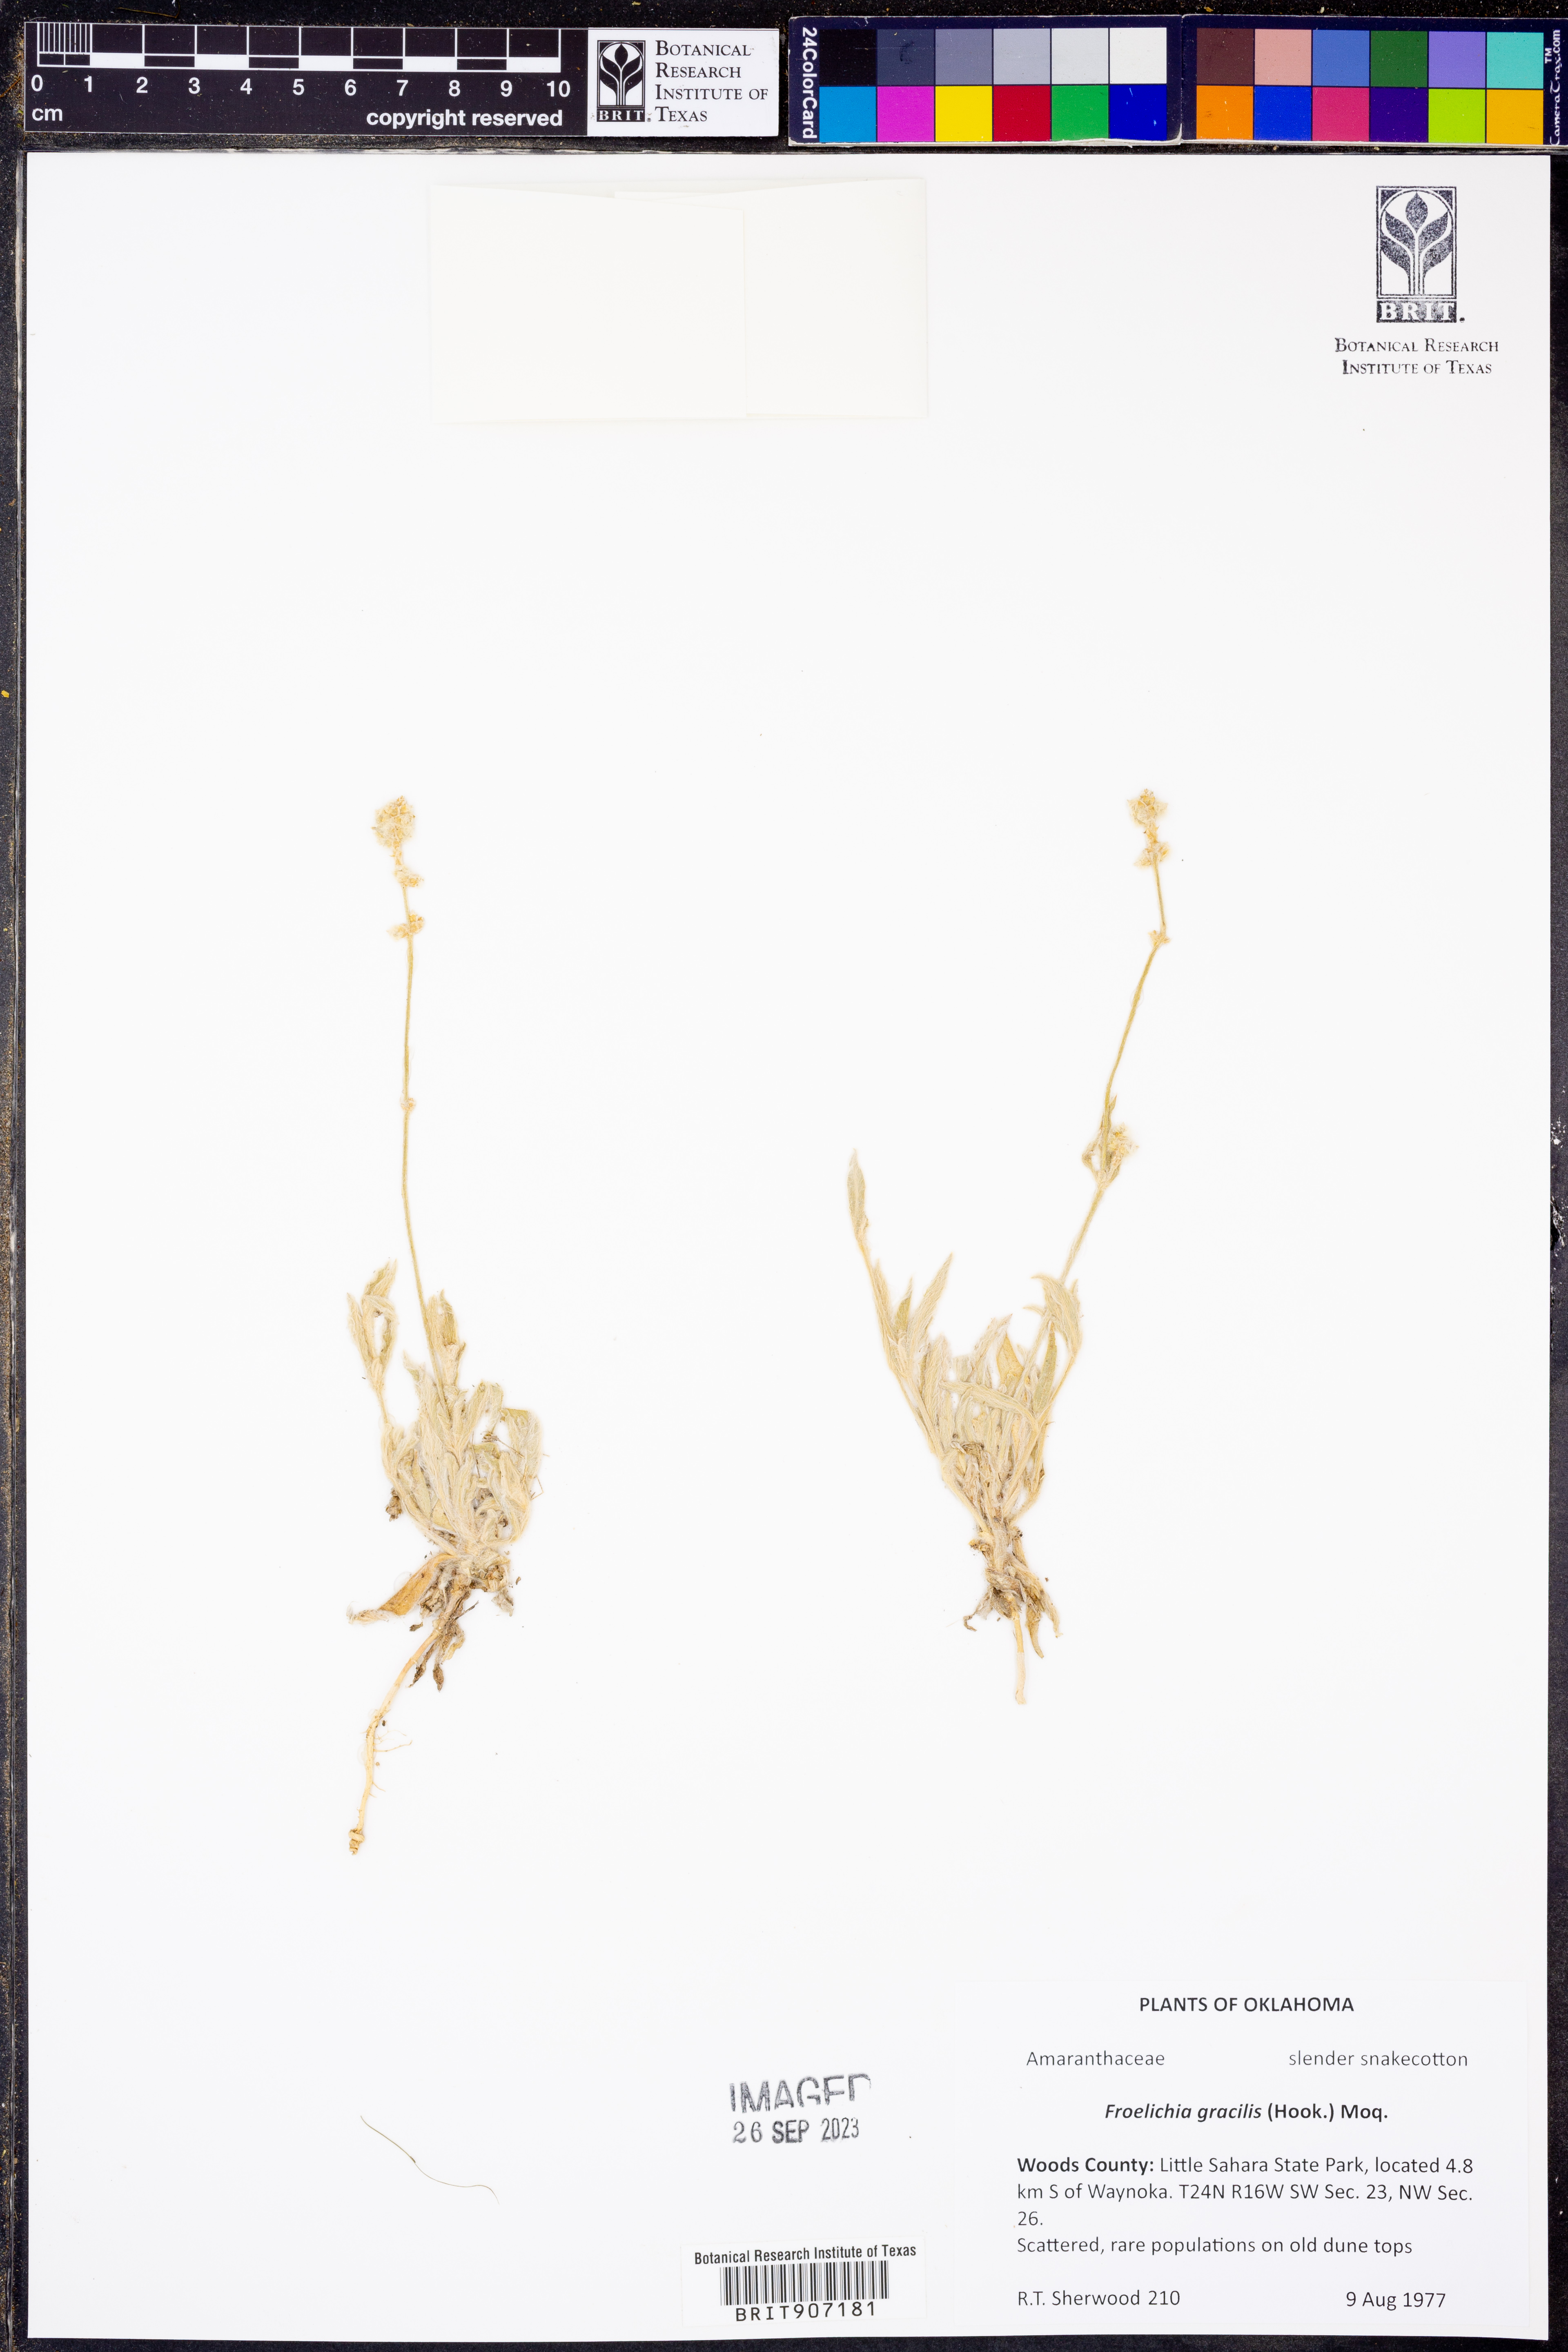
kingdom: Plantae
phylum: Tracheophyta
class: Magnoliopsida
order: Caryophyllales
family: Amaranthaceae
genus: Froelichia
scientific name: Froelichia gracilis
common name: Slender cottonweed
